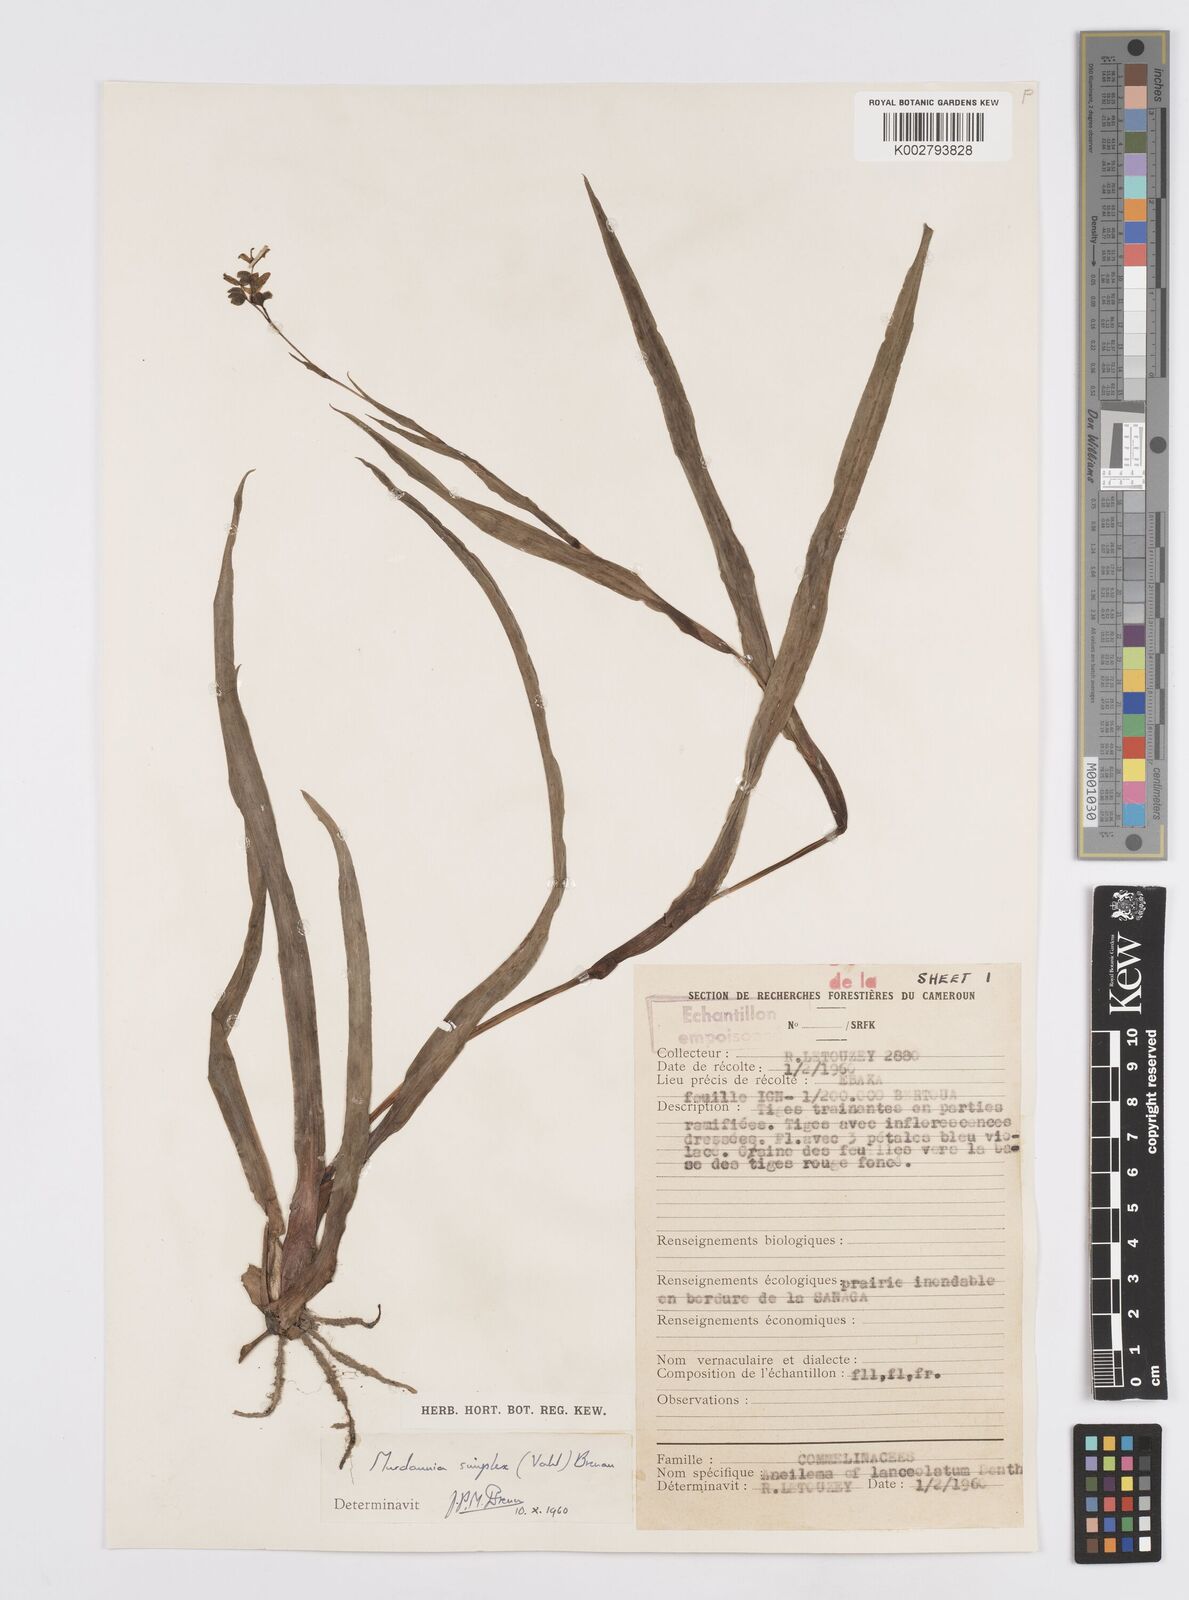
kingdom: Plantae
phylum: Tracheophyta
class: Liliopsida
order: Commelinales
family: Commelinaceae
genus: Murdannia
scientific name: Murdannia simplex
